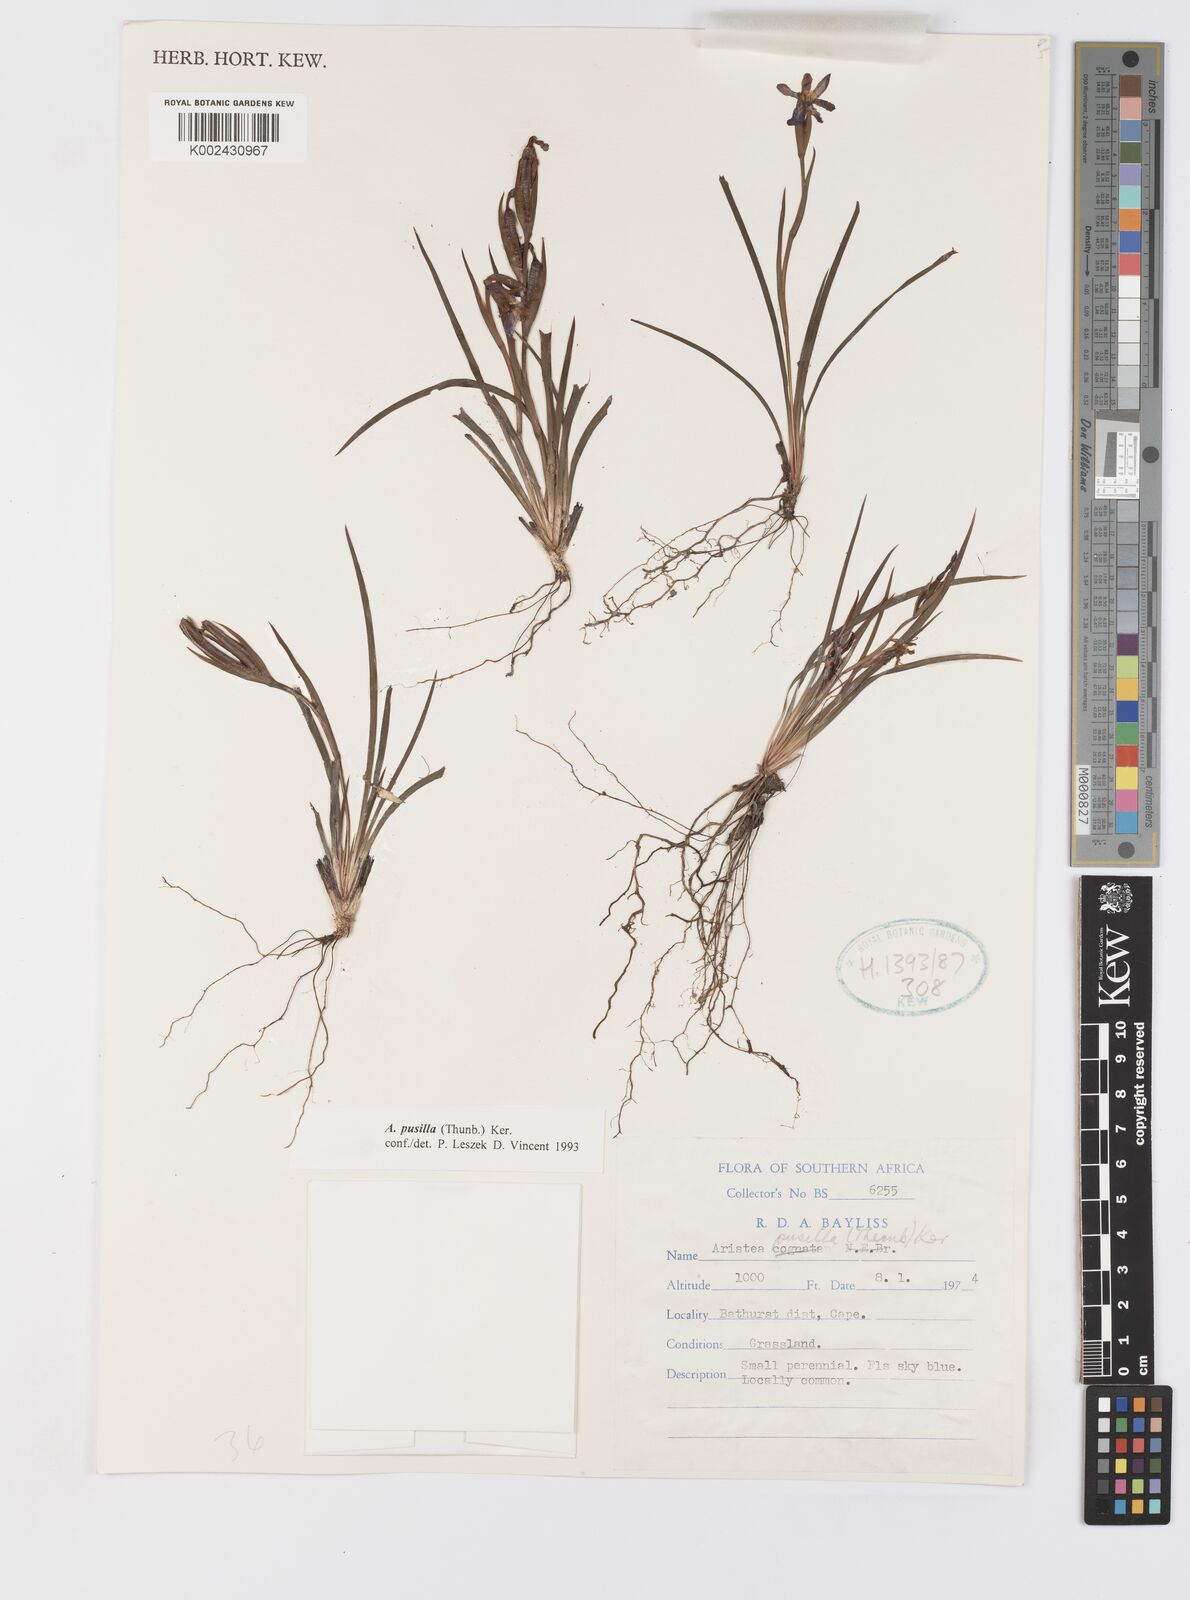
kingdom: Plantae
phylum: Tracheophyta
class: Liliopsida
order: Asparagales
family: Iridaceae
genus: Aristea
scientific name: Aristea pusilla
